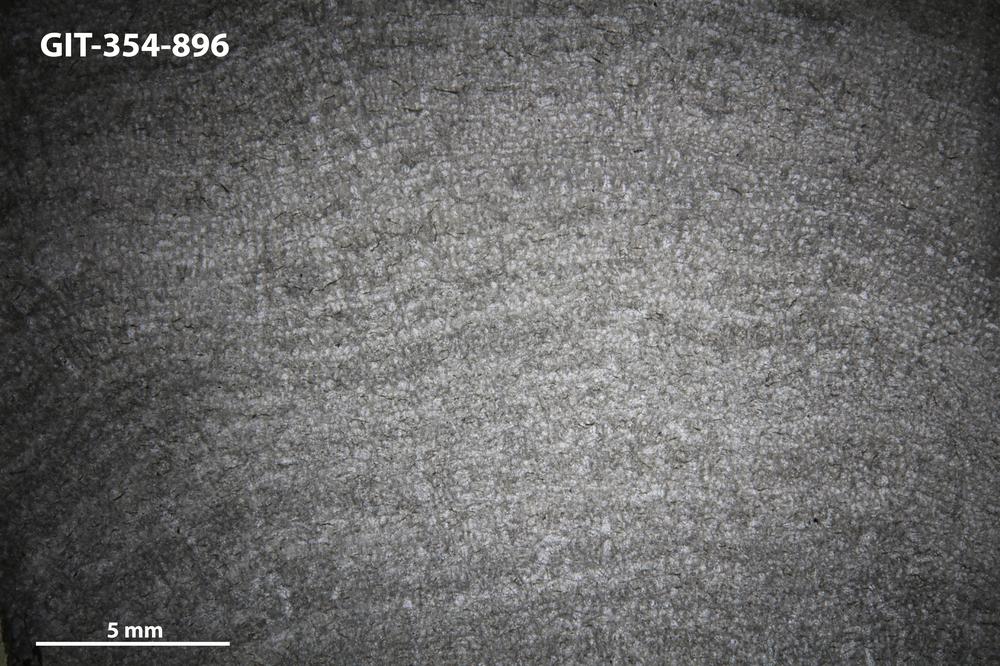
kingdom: Animalia
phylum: Porifera
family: Pseudolabechiidae
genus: Vikingia
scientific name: Vikingia
